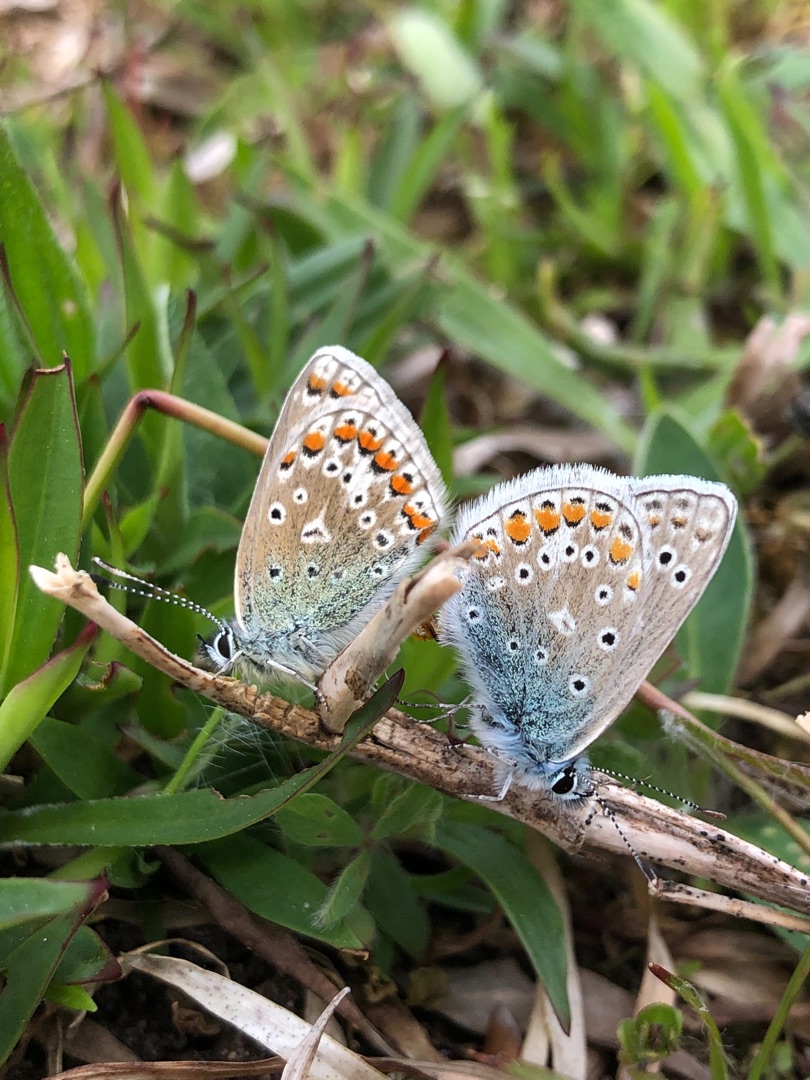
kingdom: Animalia
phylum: Arthropoda
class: Insecta
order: Lepidoptera
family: Lycaenidae
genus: Polyommatus
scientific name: Polyommatus icarus
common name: Almindelig blåfugl
